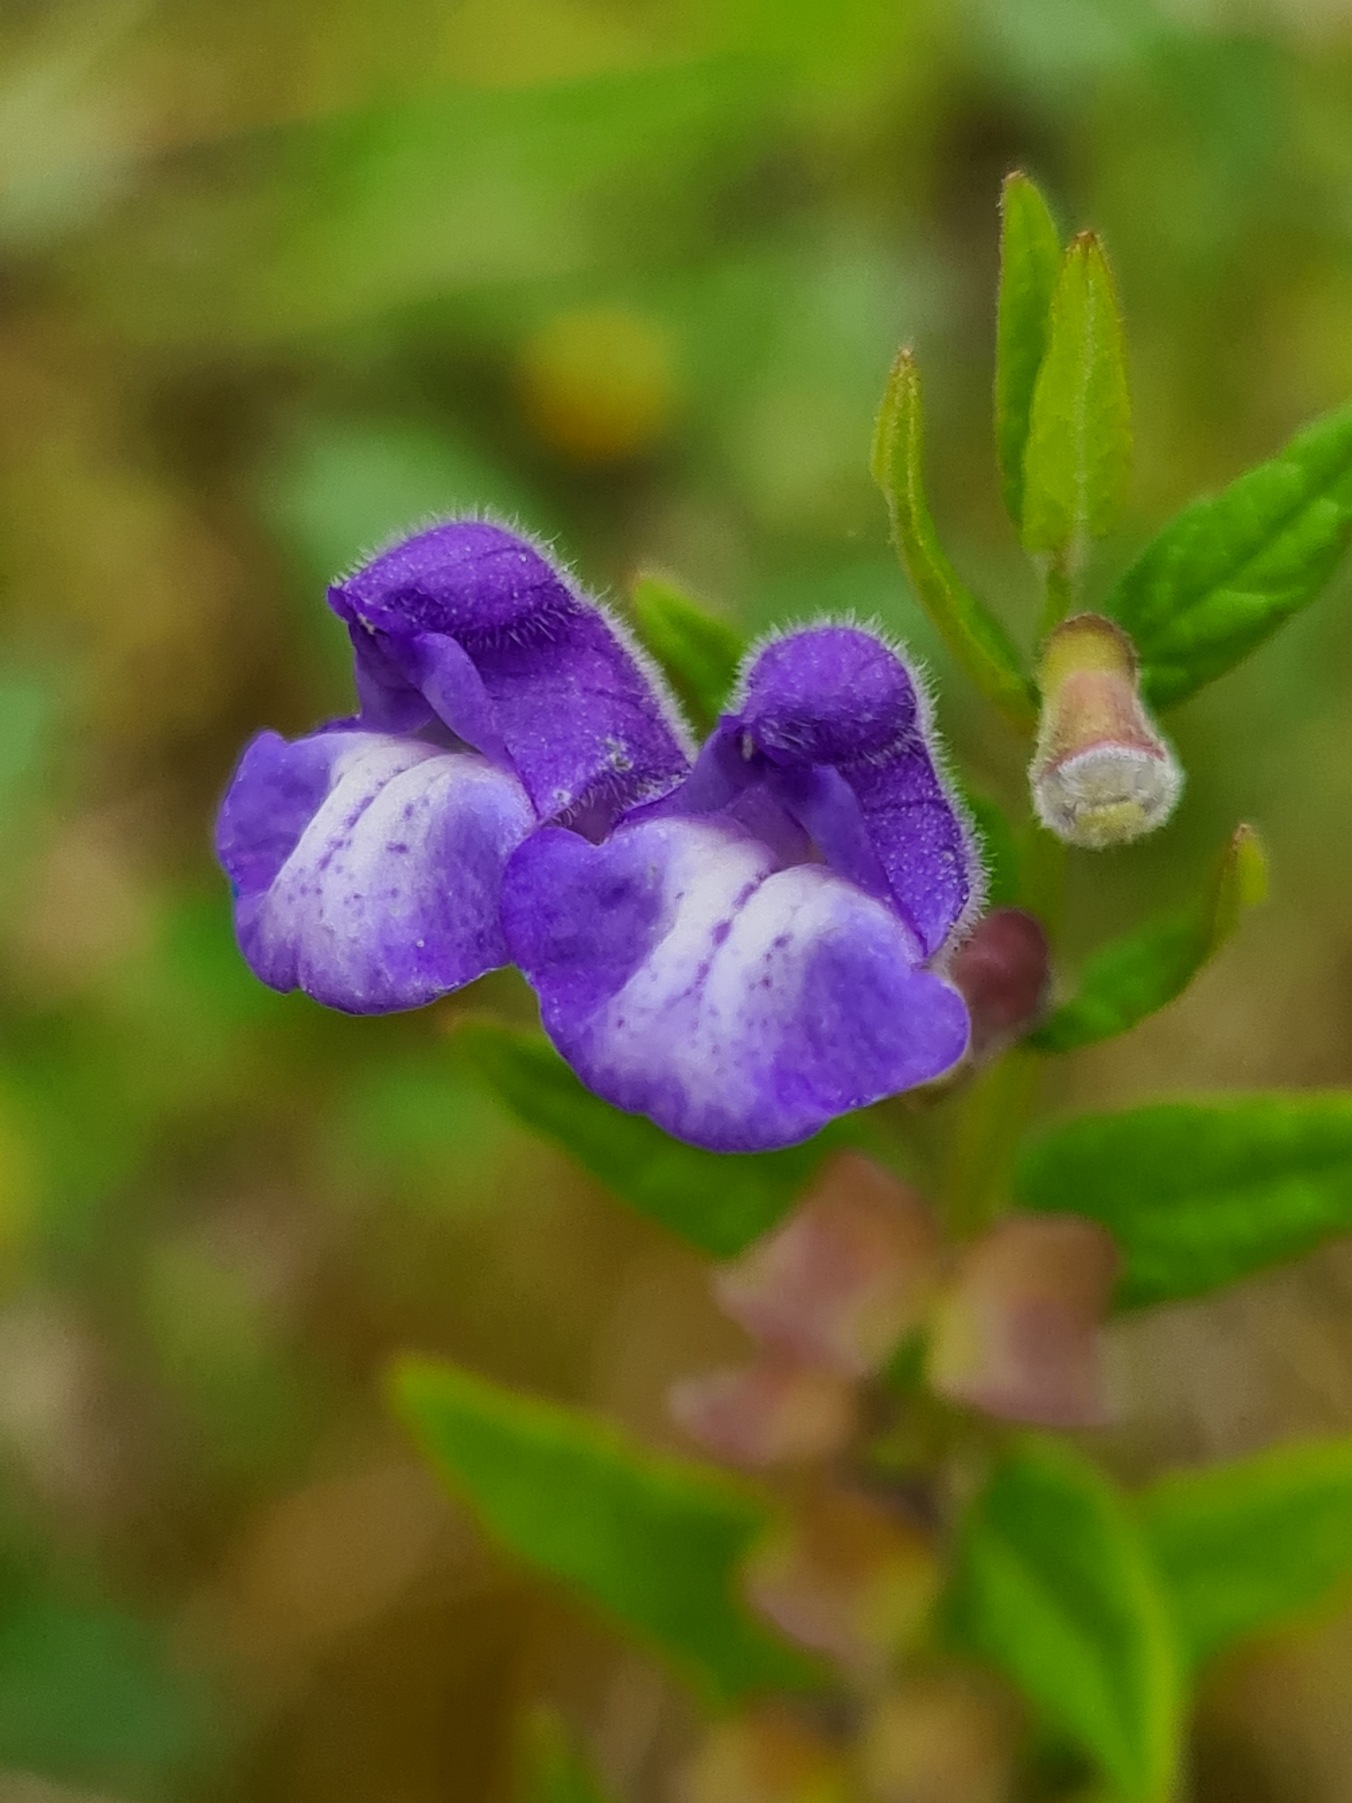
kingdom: Plantae
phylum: Tracheophyta
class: Magnoliopsida
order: Lamiales
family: Lamiaceae
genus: Scutellaria
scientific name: Scutellaria galericulata
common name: Almindelig skjolddrager
